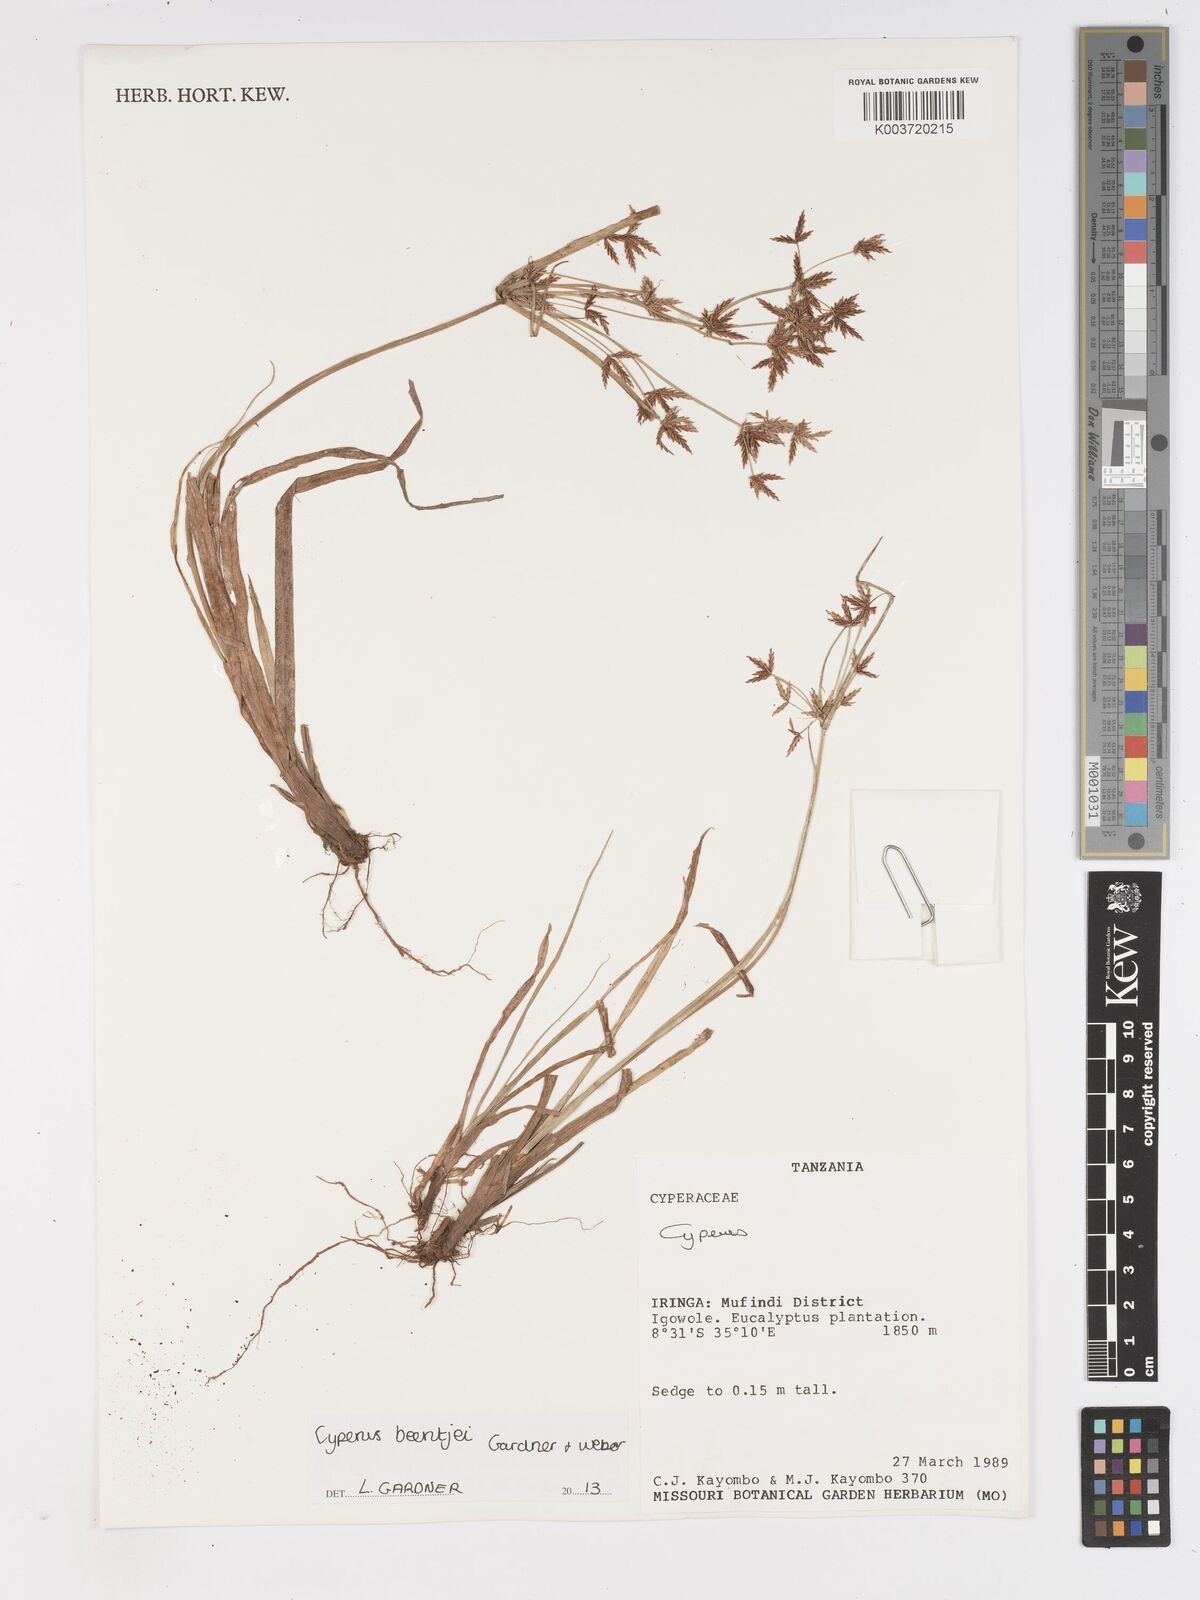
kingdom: Plantae
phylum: Tracheophyta
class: Liliopsida
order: Poales
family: Cyperaceae
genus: Cyperus
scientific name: Cyperus beentjei
